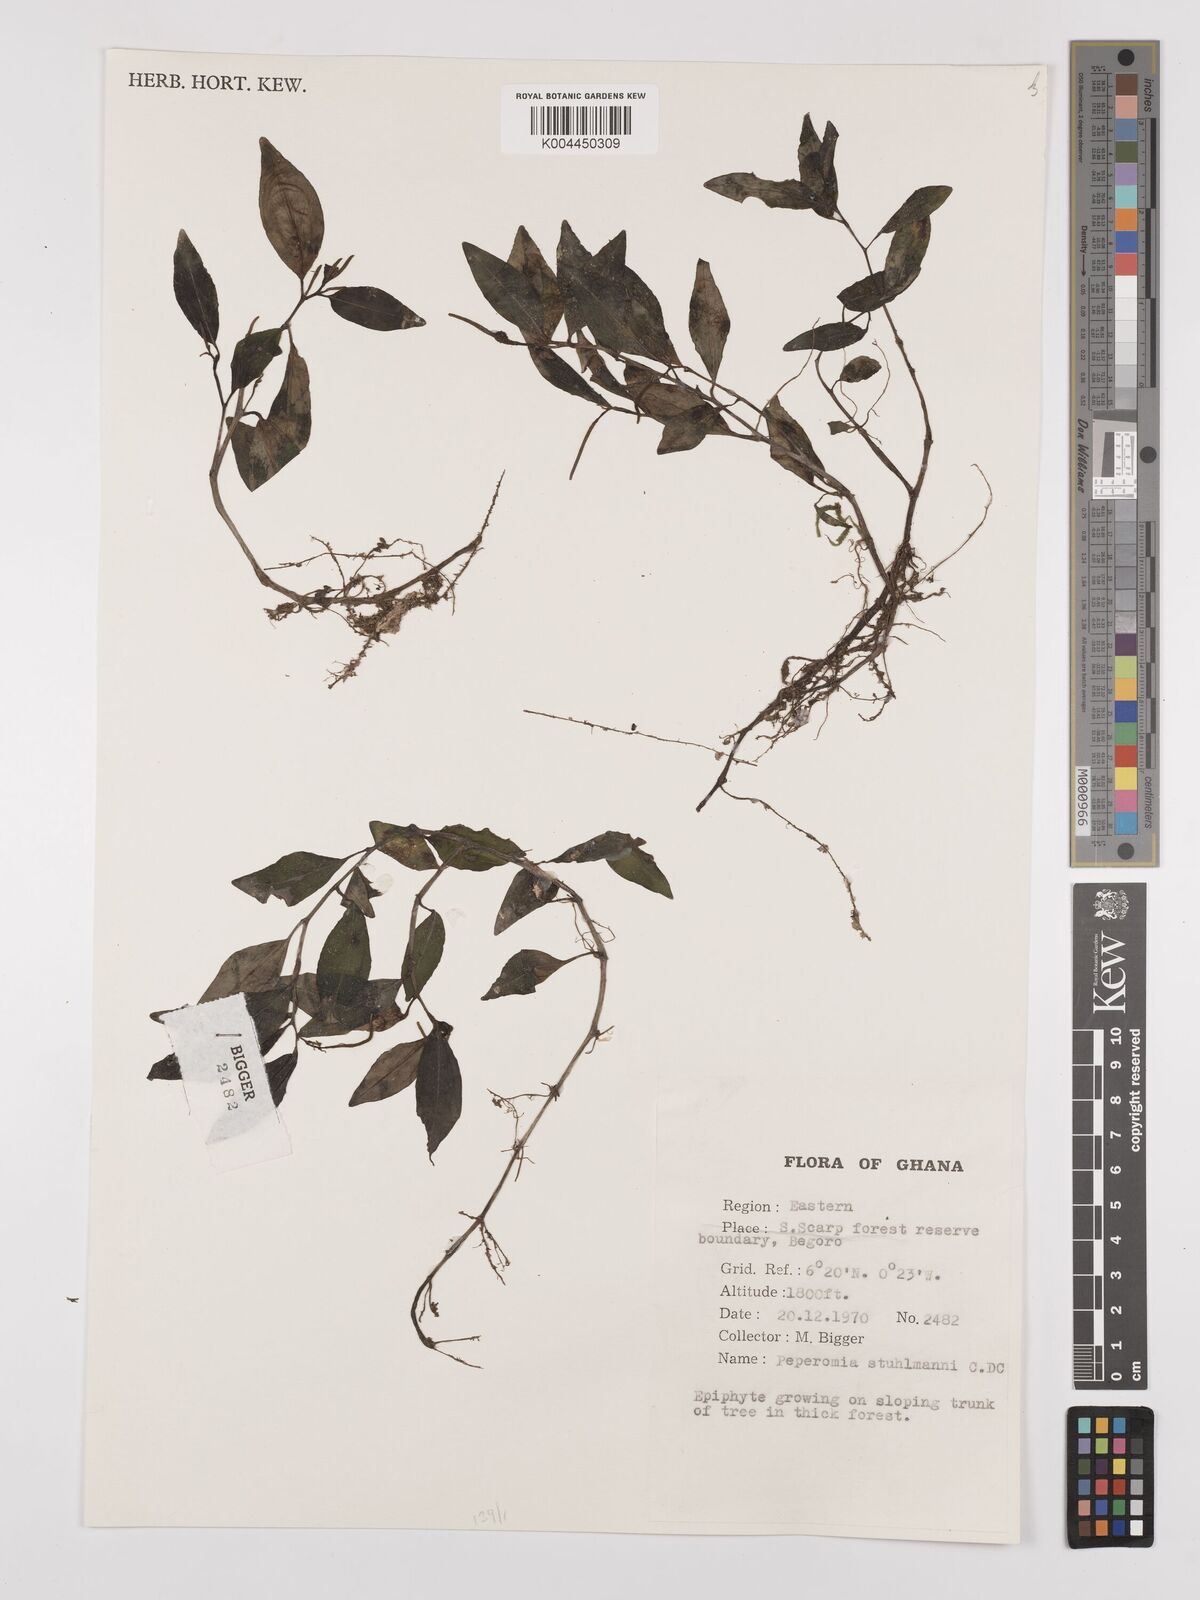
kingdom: Plantae
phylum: Tracheophyta
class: Magnoliopsida
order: Piperales
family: Piperaceae
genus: Peperomia
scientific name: Peperomia abyssinica
